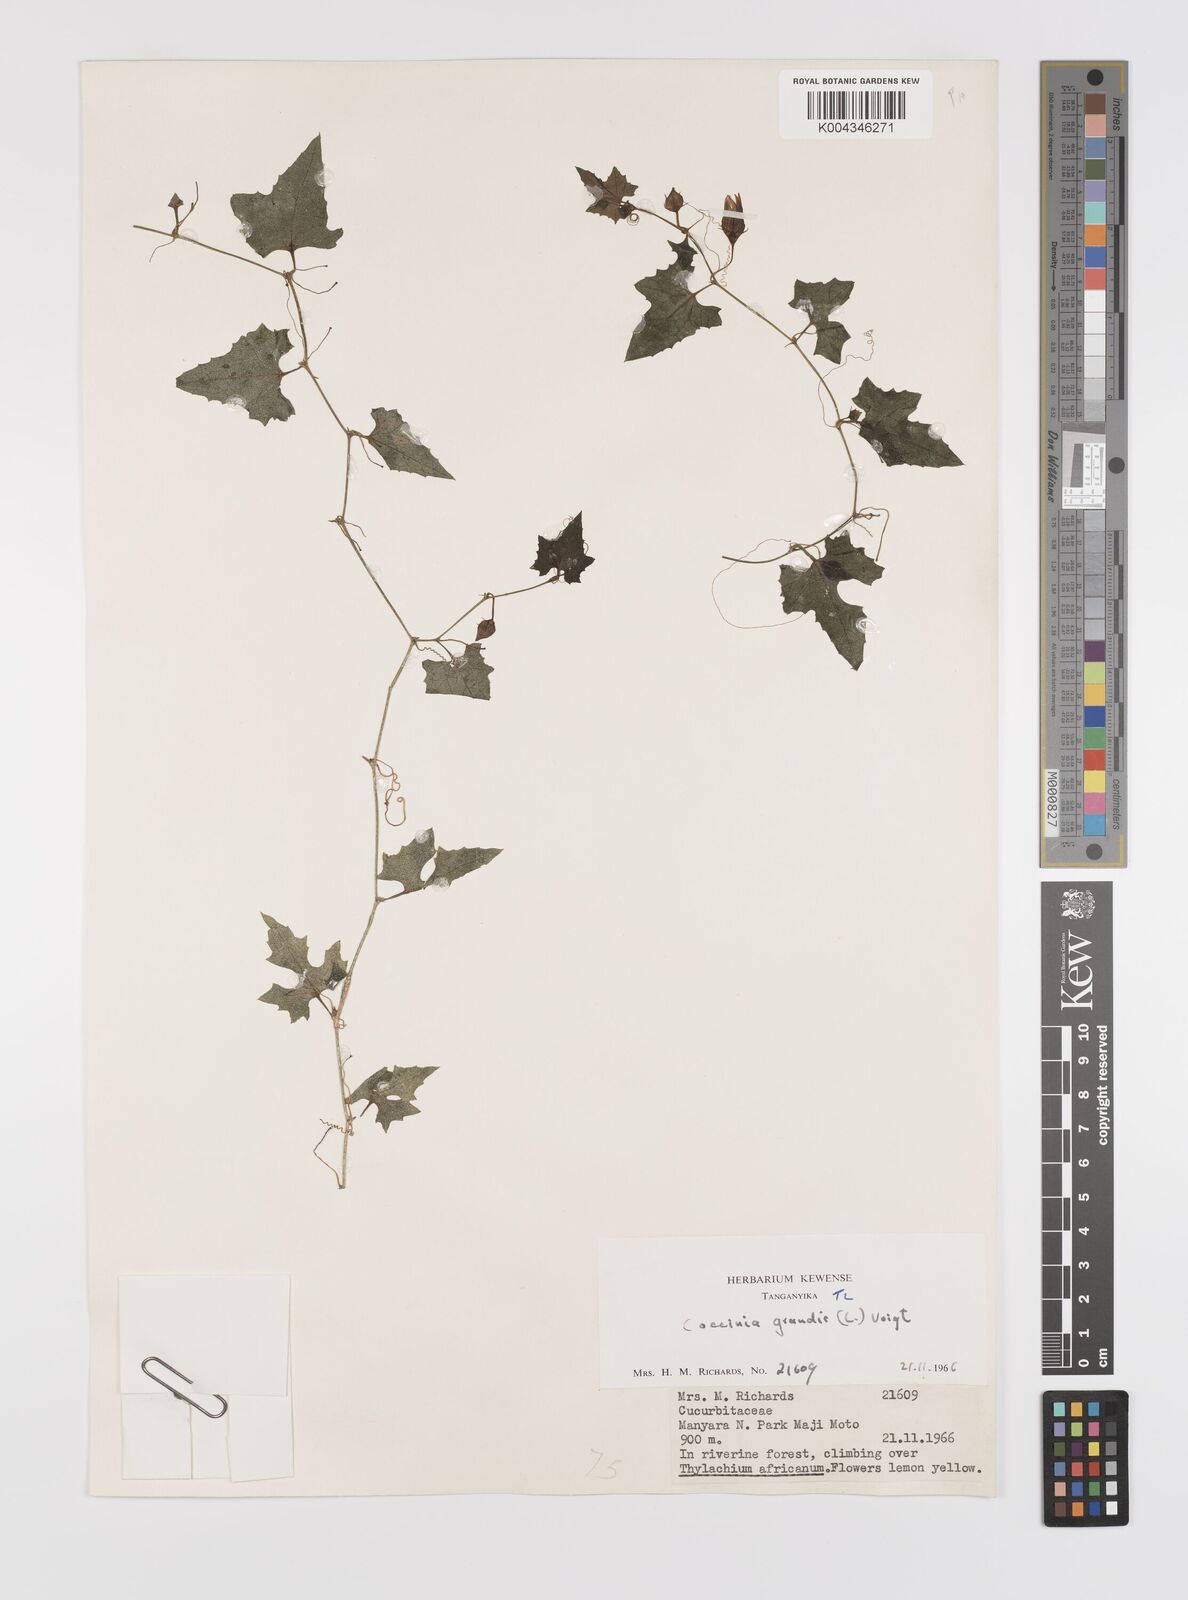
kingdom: Plantae
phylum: Tracheophyta
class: Magnoliopsida
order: Cucurbitales
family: Cucurbitaceae
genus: Coccinia
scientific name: Coccinia grandis
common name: Ivy gourd
